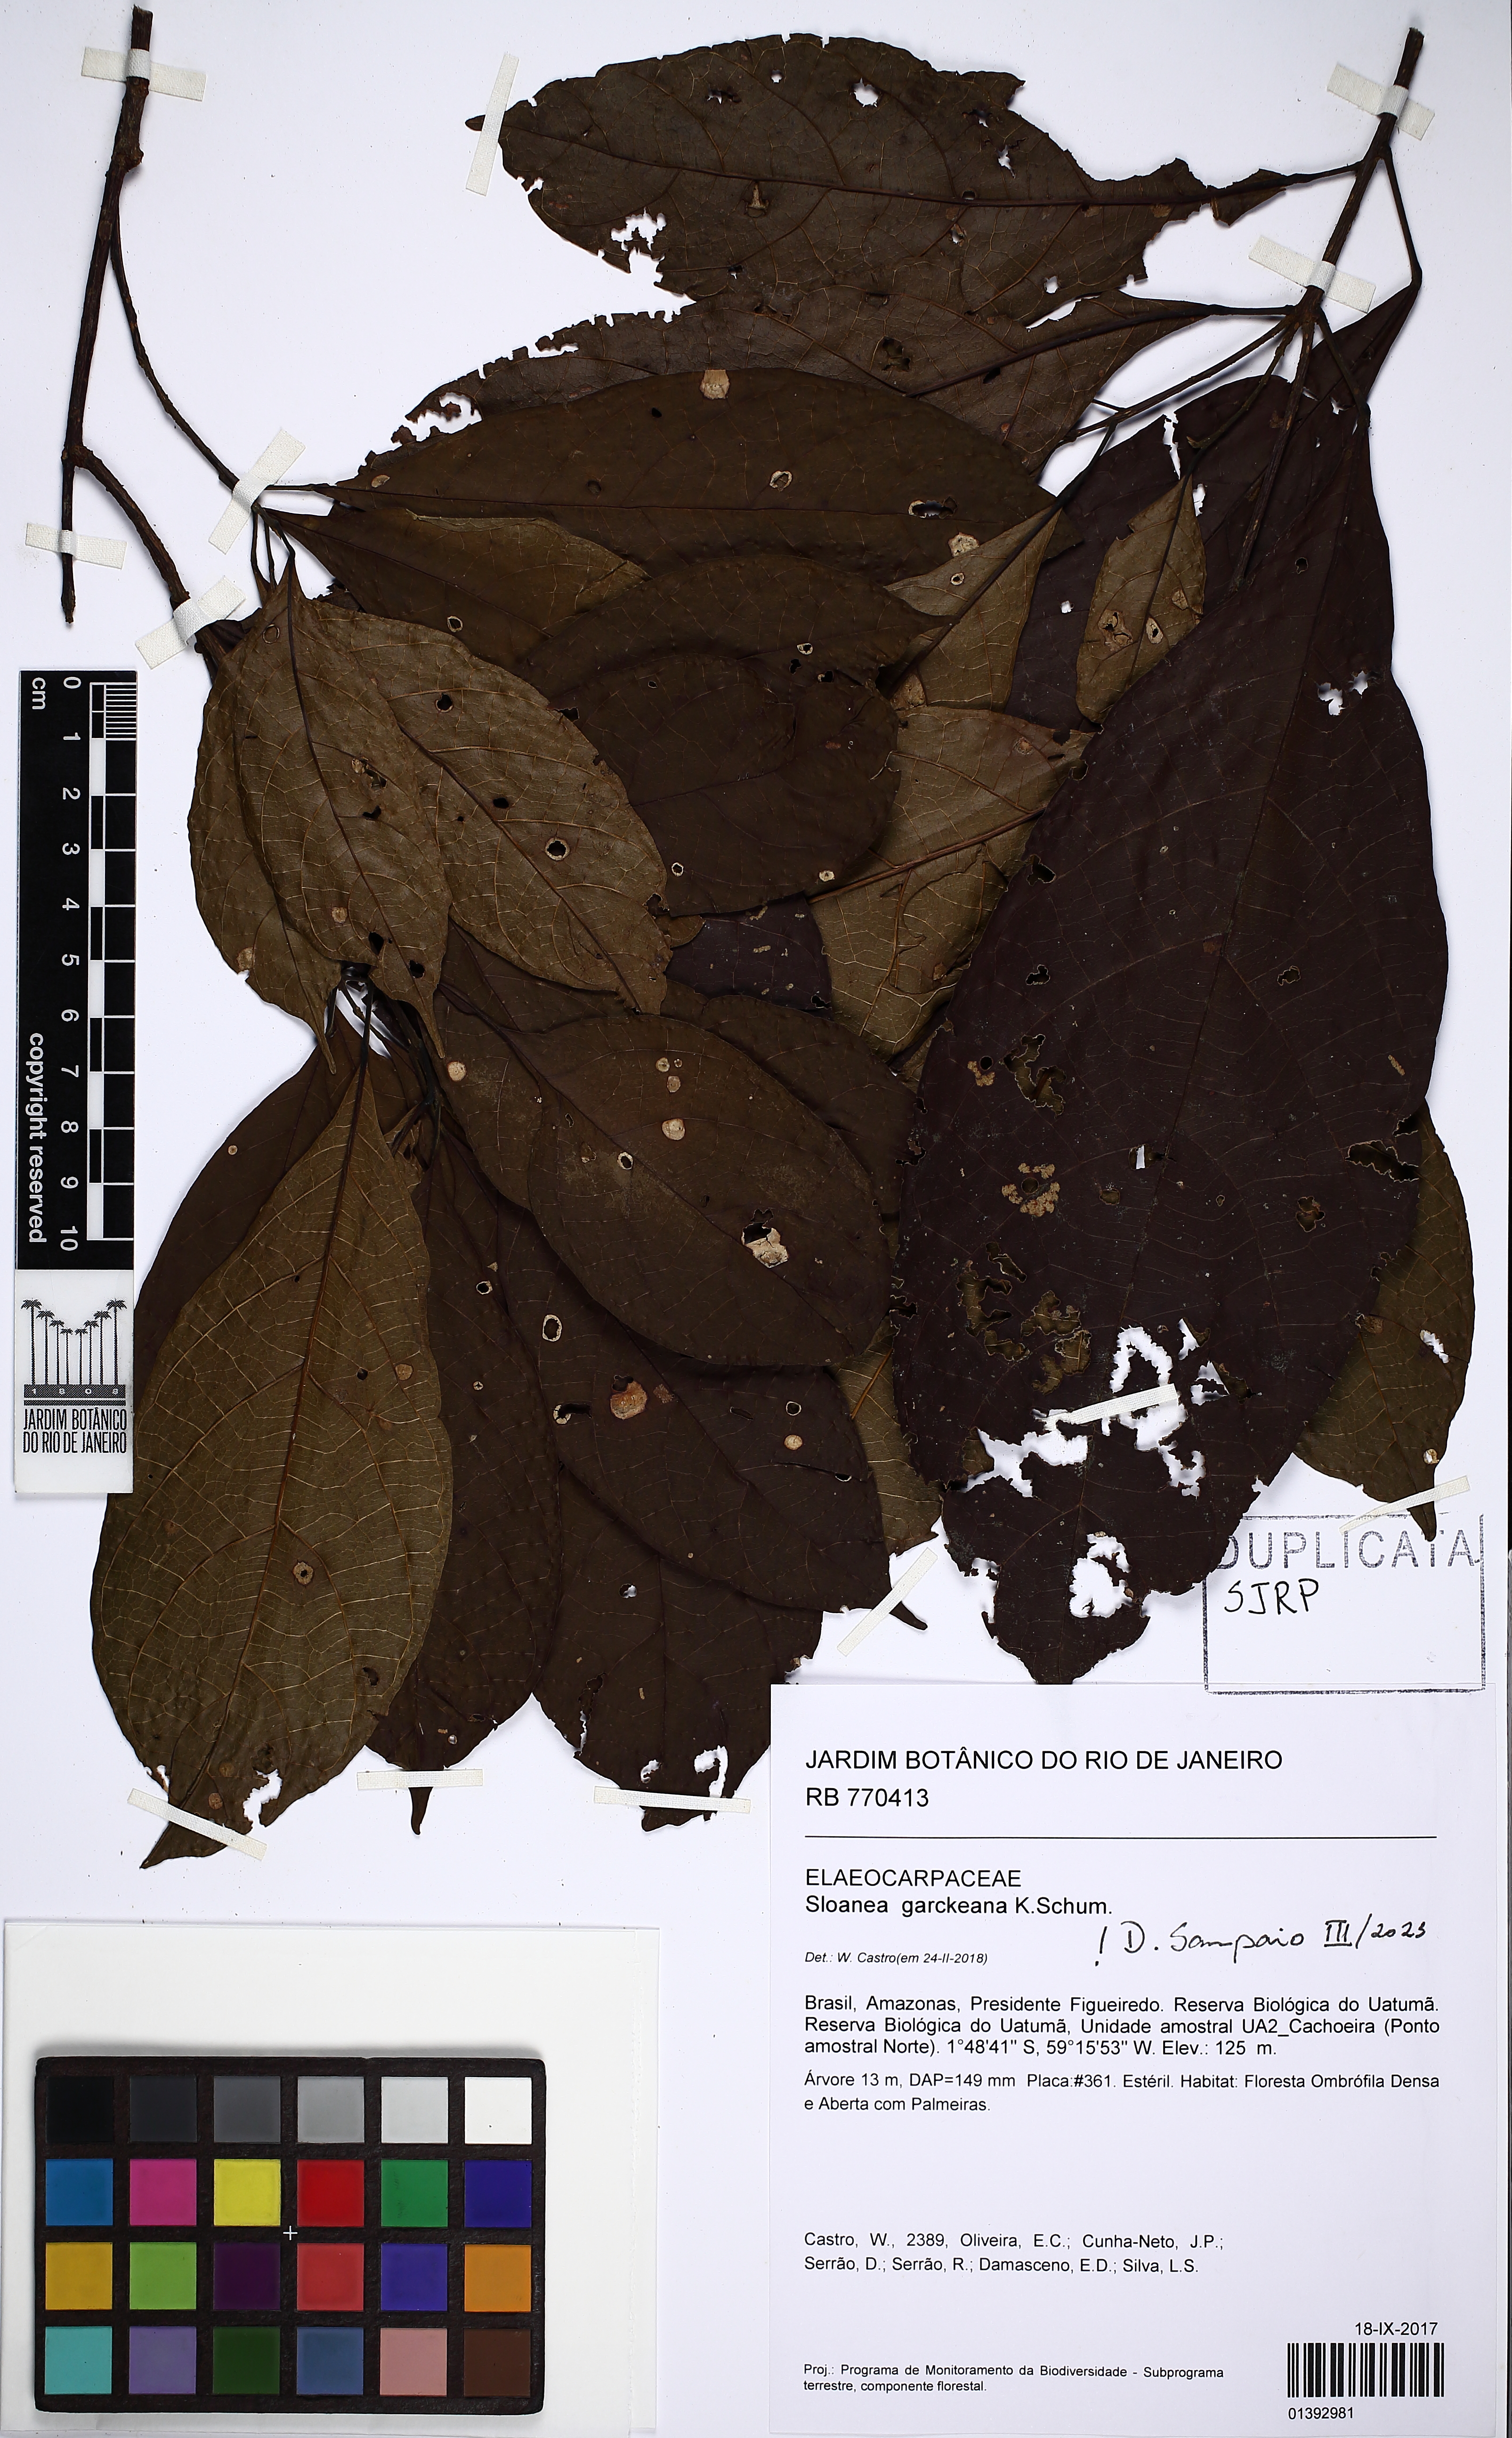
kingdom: Plantae
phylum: Tracheophyta
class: Magnoliopsida
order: Oxalidales
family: Elaeocarpaceae
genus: Sloanea
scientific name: Sloanea garckeana
